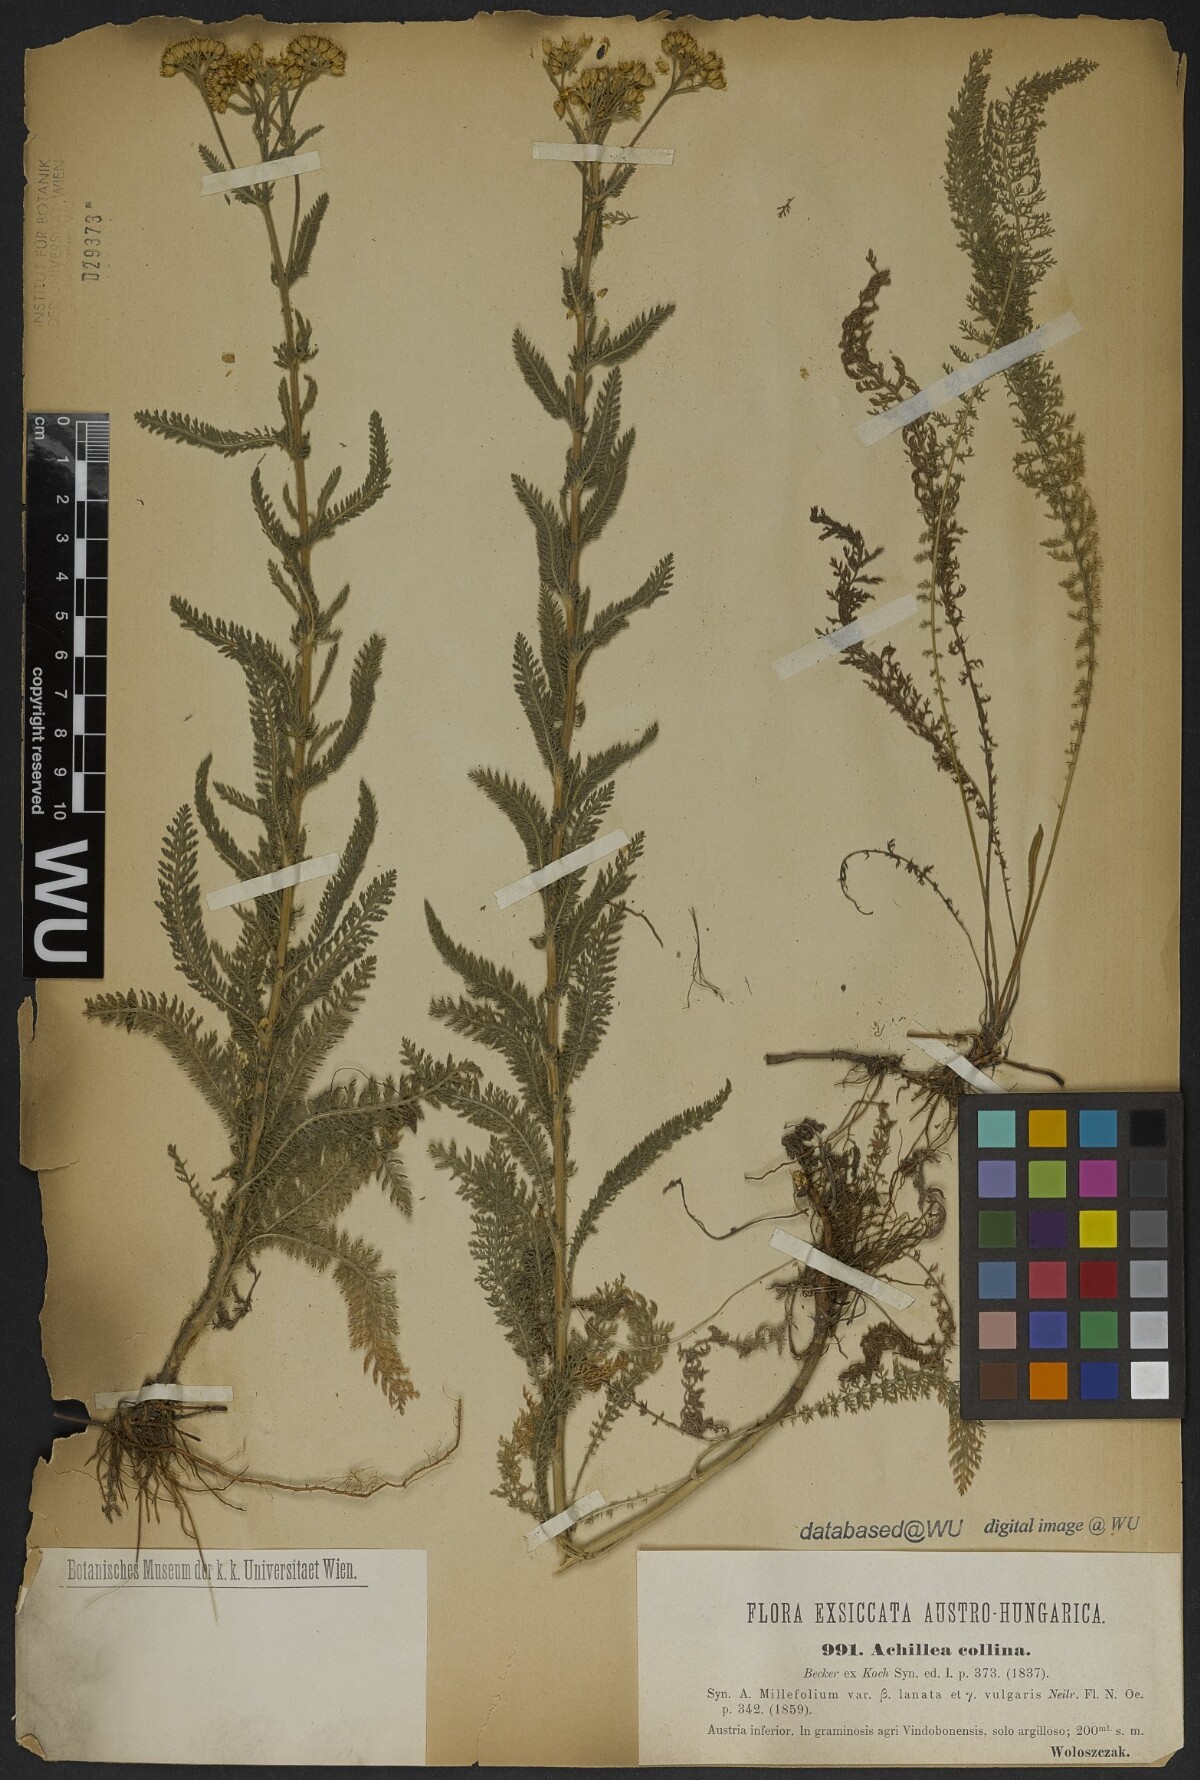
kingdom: Plantae
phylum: Tracheophyta
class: Magnoliopsida
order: Asterales
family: Asteraceae
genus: Achillea
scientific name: Achillea collina
